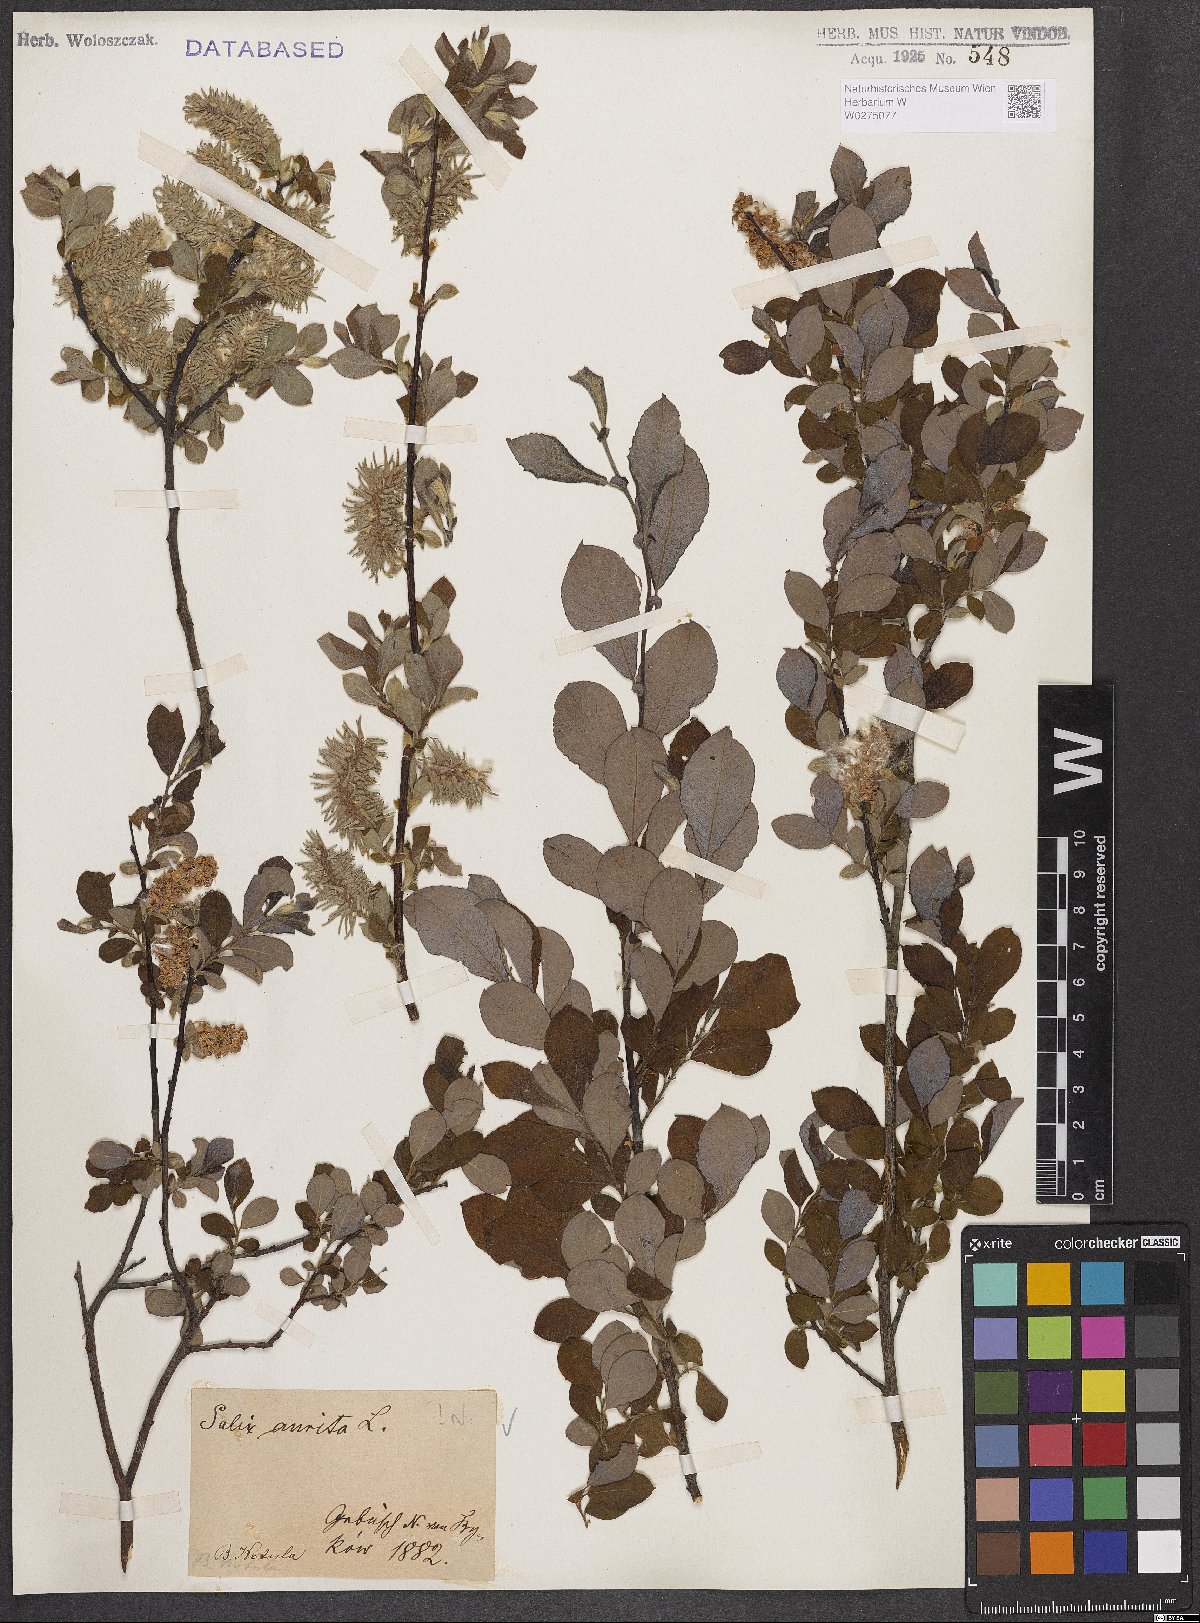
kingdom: Plantae
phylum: Tracheophyta
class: Magnoliopsida
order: Malpighiales
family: Salicaceae
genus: Salix
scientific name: Salix aurita
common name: Eared willow
